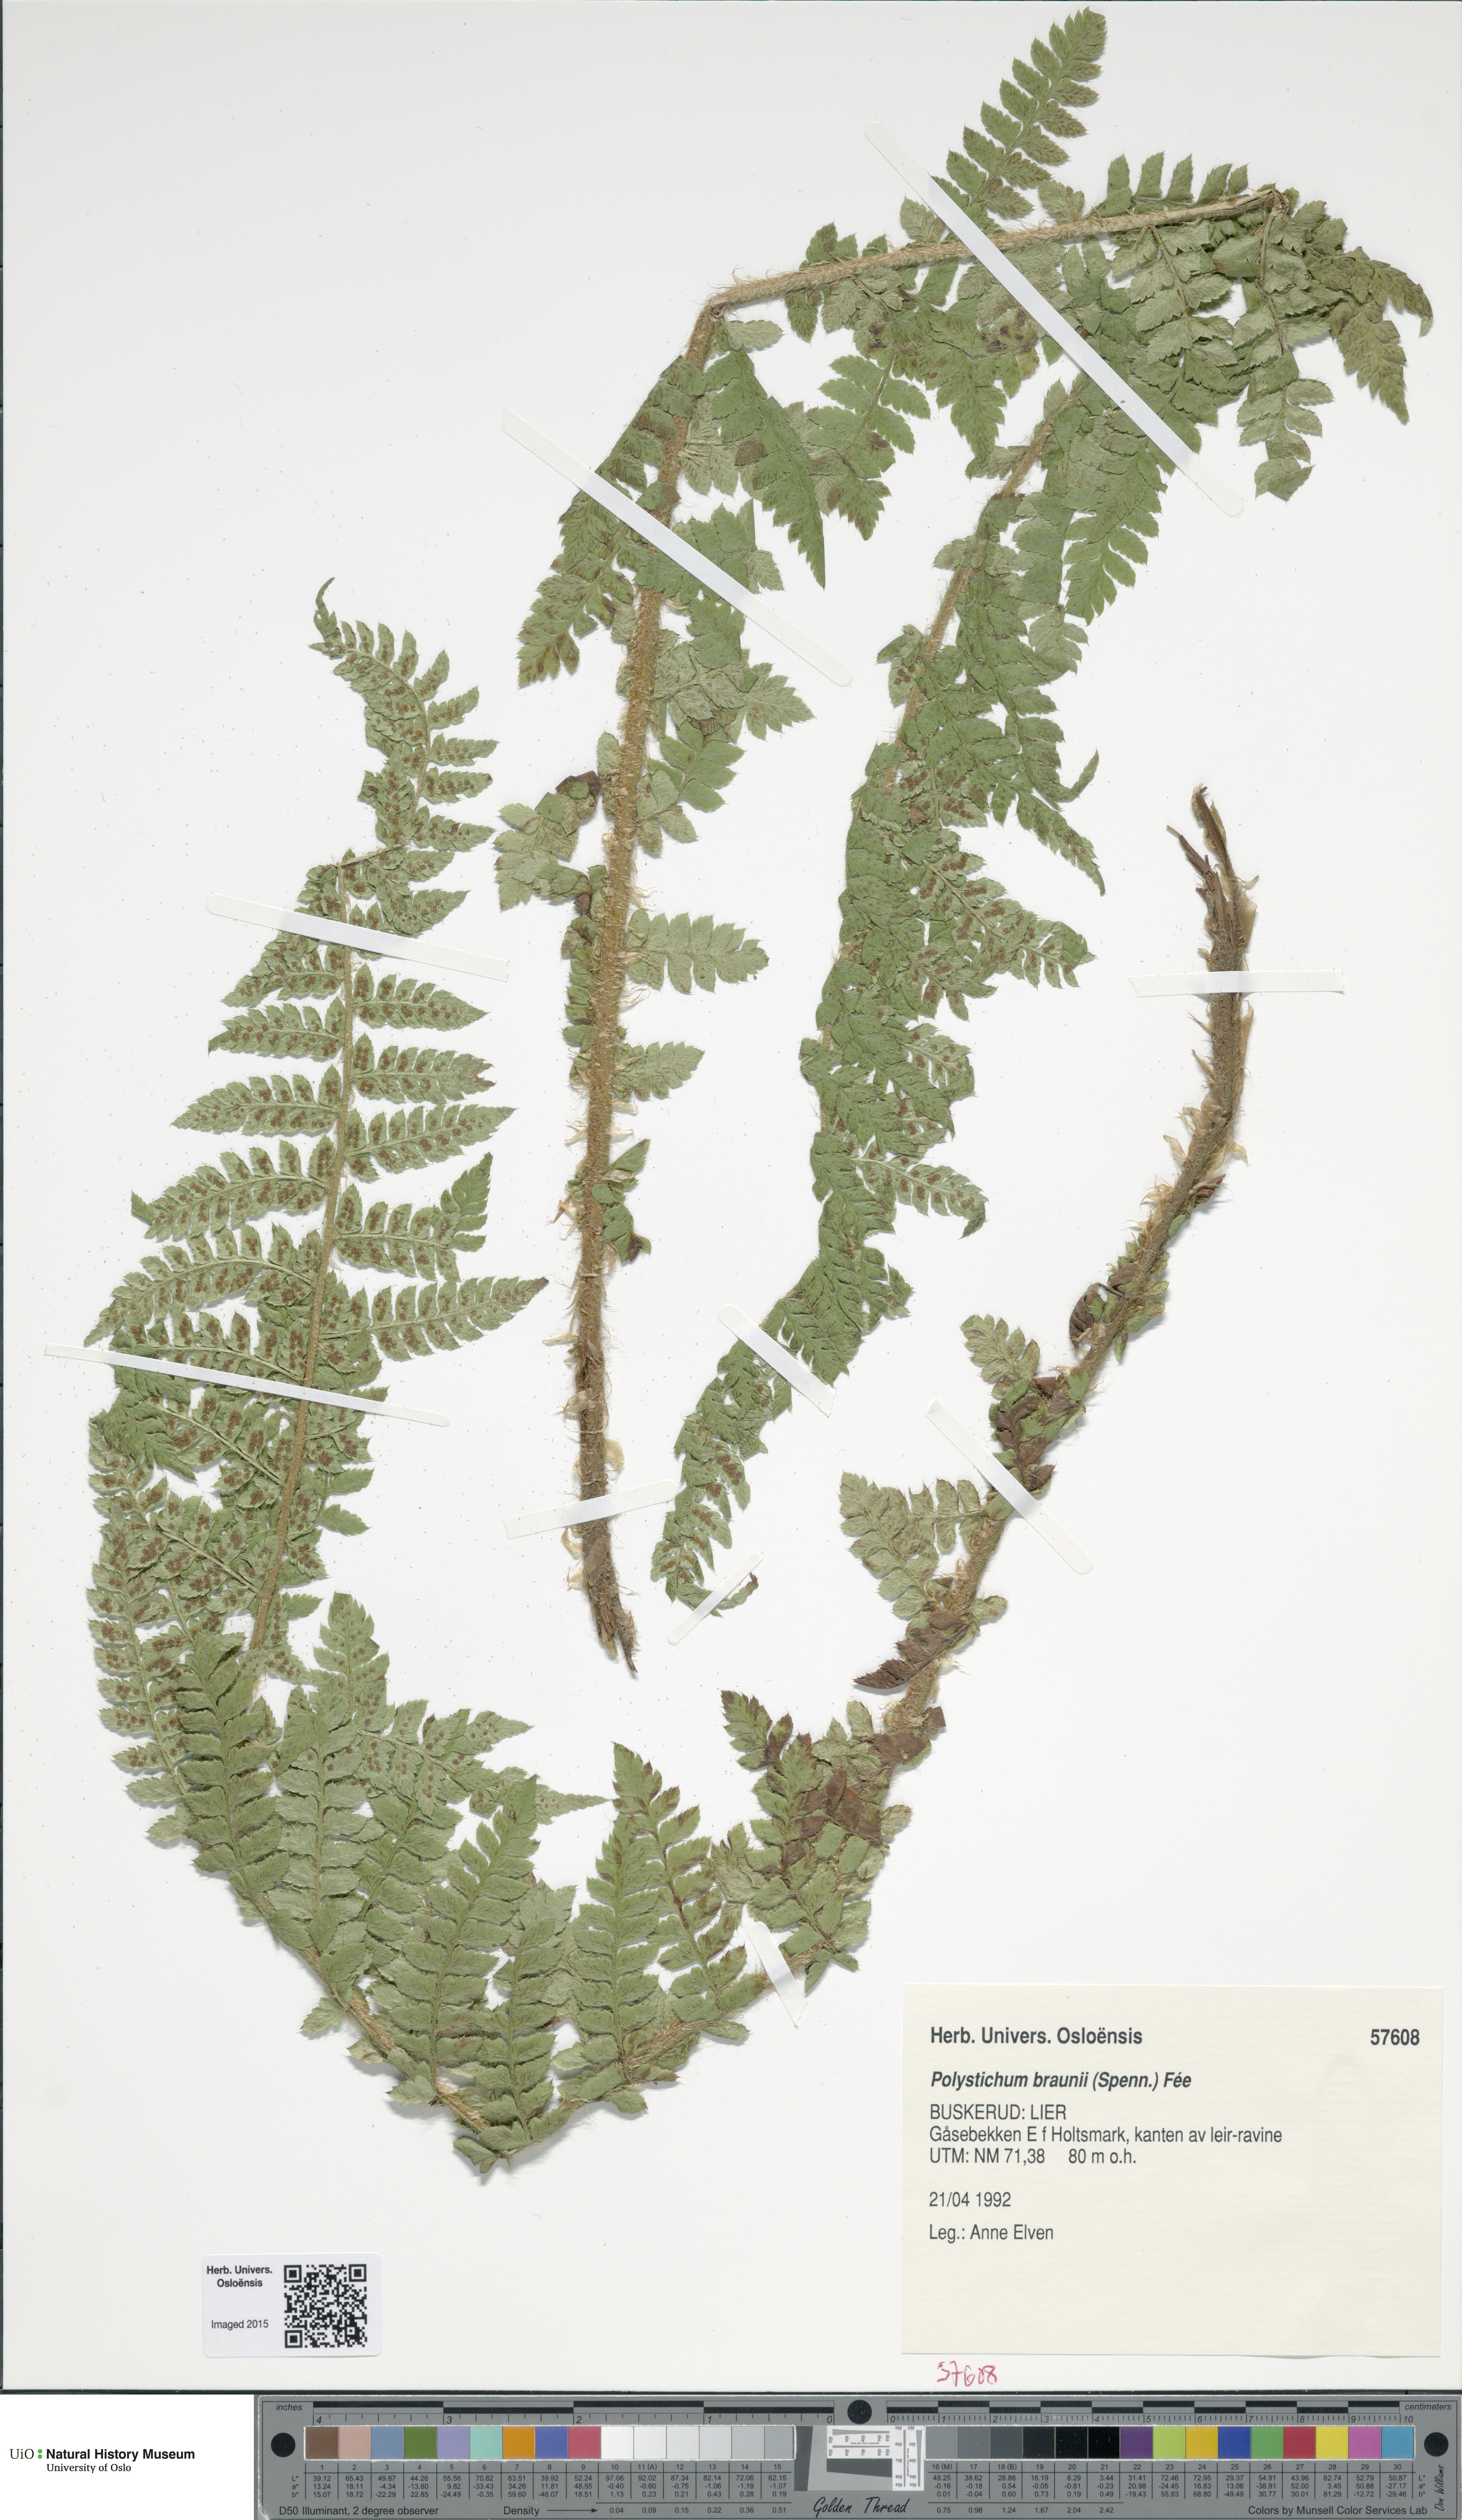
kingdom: Plantae
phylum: Tracheophyta
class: Polypodiopsida
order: Polypodiales
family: Dryopteridaceae
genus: Polystichum
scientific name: Polystichum braunii
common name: Braun's holly fern
